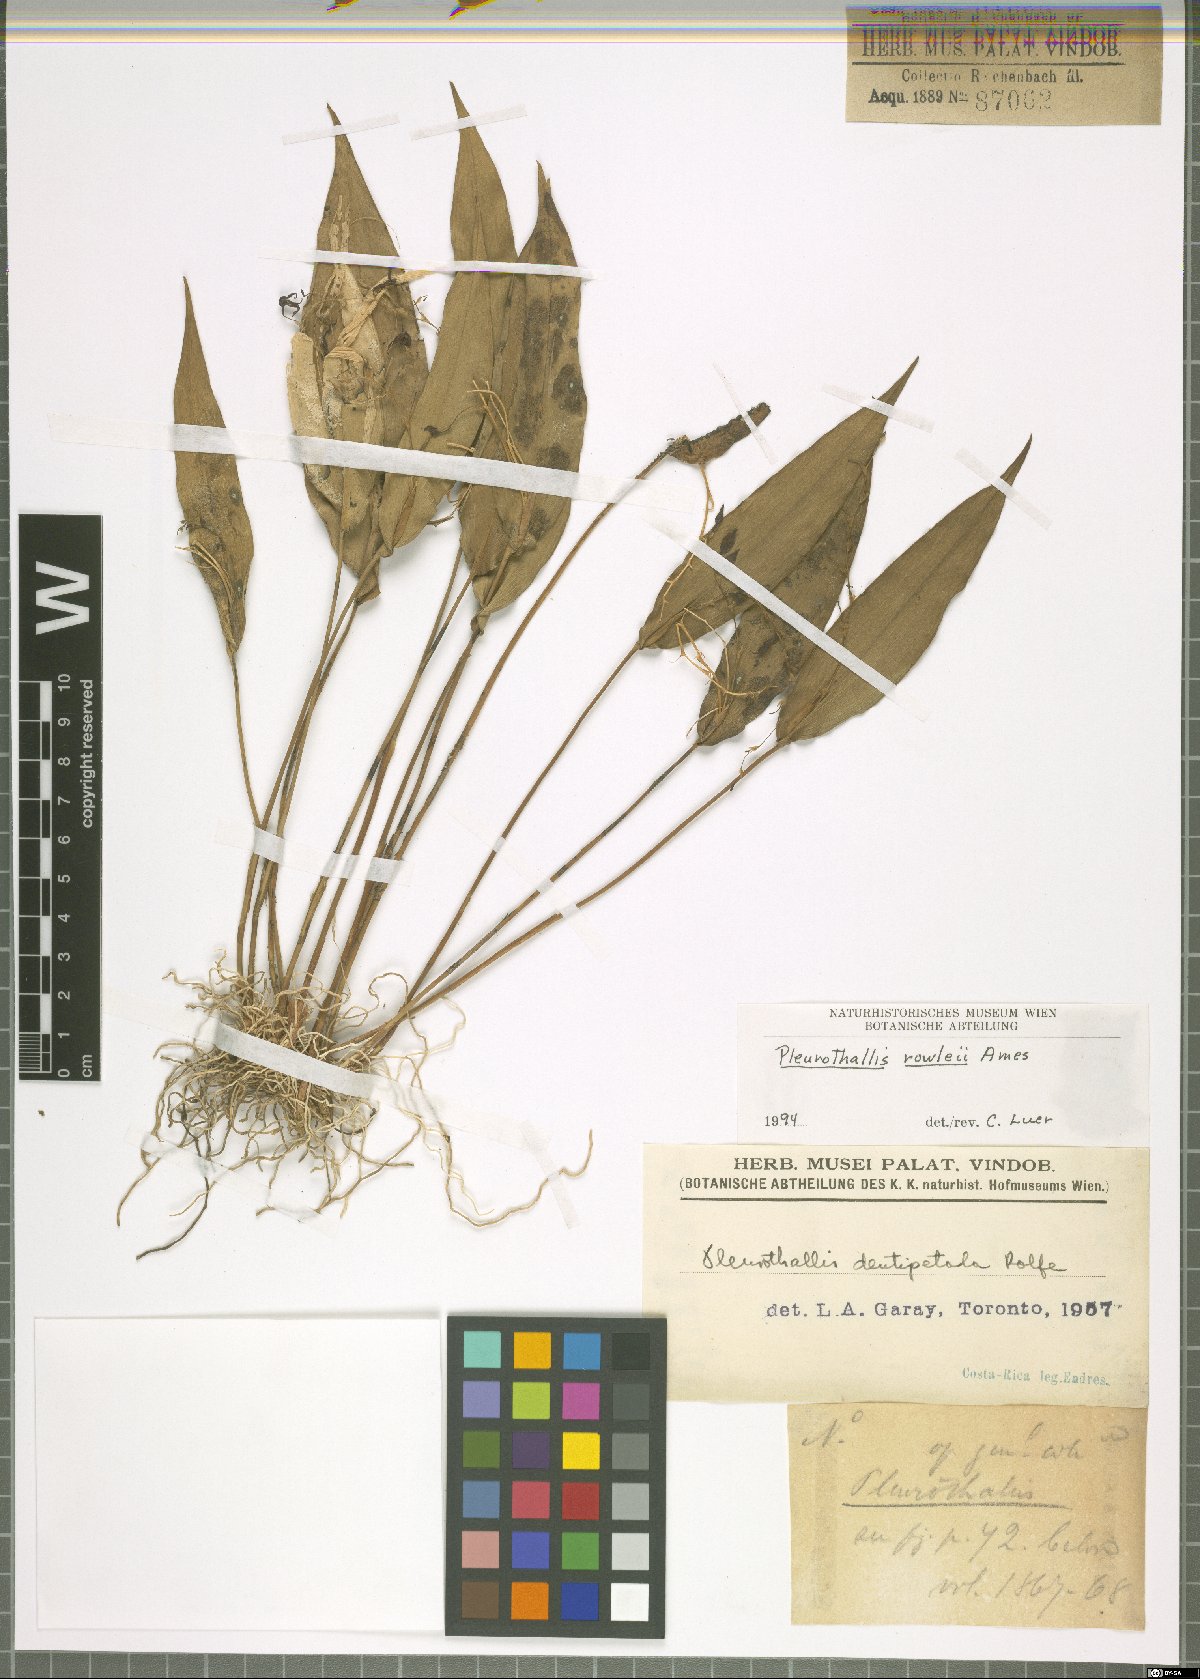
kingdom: Plantae
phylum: Tracheophyta
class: Liliopsida
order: Asparagales
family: Orchidaceae
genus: Pleurothallis
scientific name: Pleurothallis rowleei
